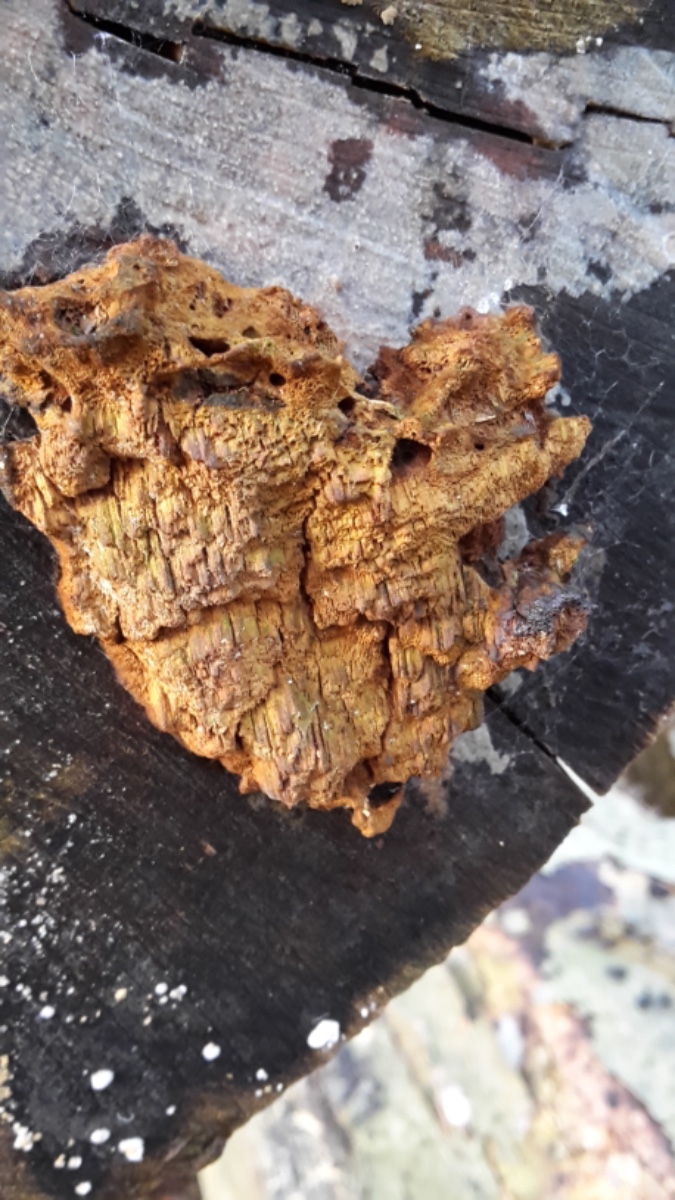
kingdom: Fungi
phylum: Basidiomycota
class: Agaricomycetes
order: Hymenochaetales
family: Hymenochaetaceae
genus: Mensularia
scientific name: Mensularia nodulosa
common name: bøge-spejlporesvamp
